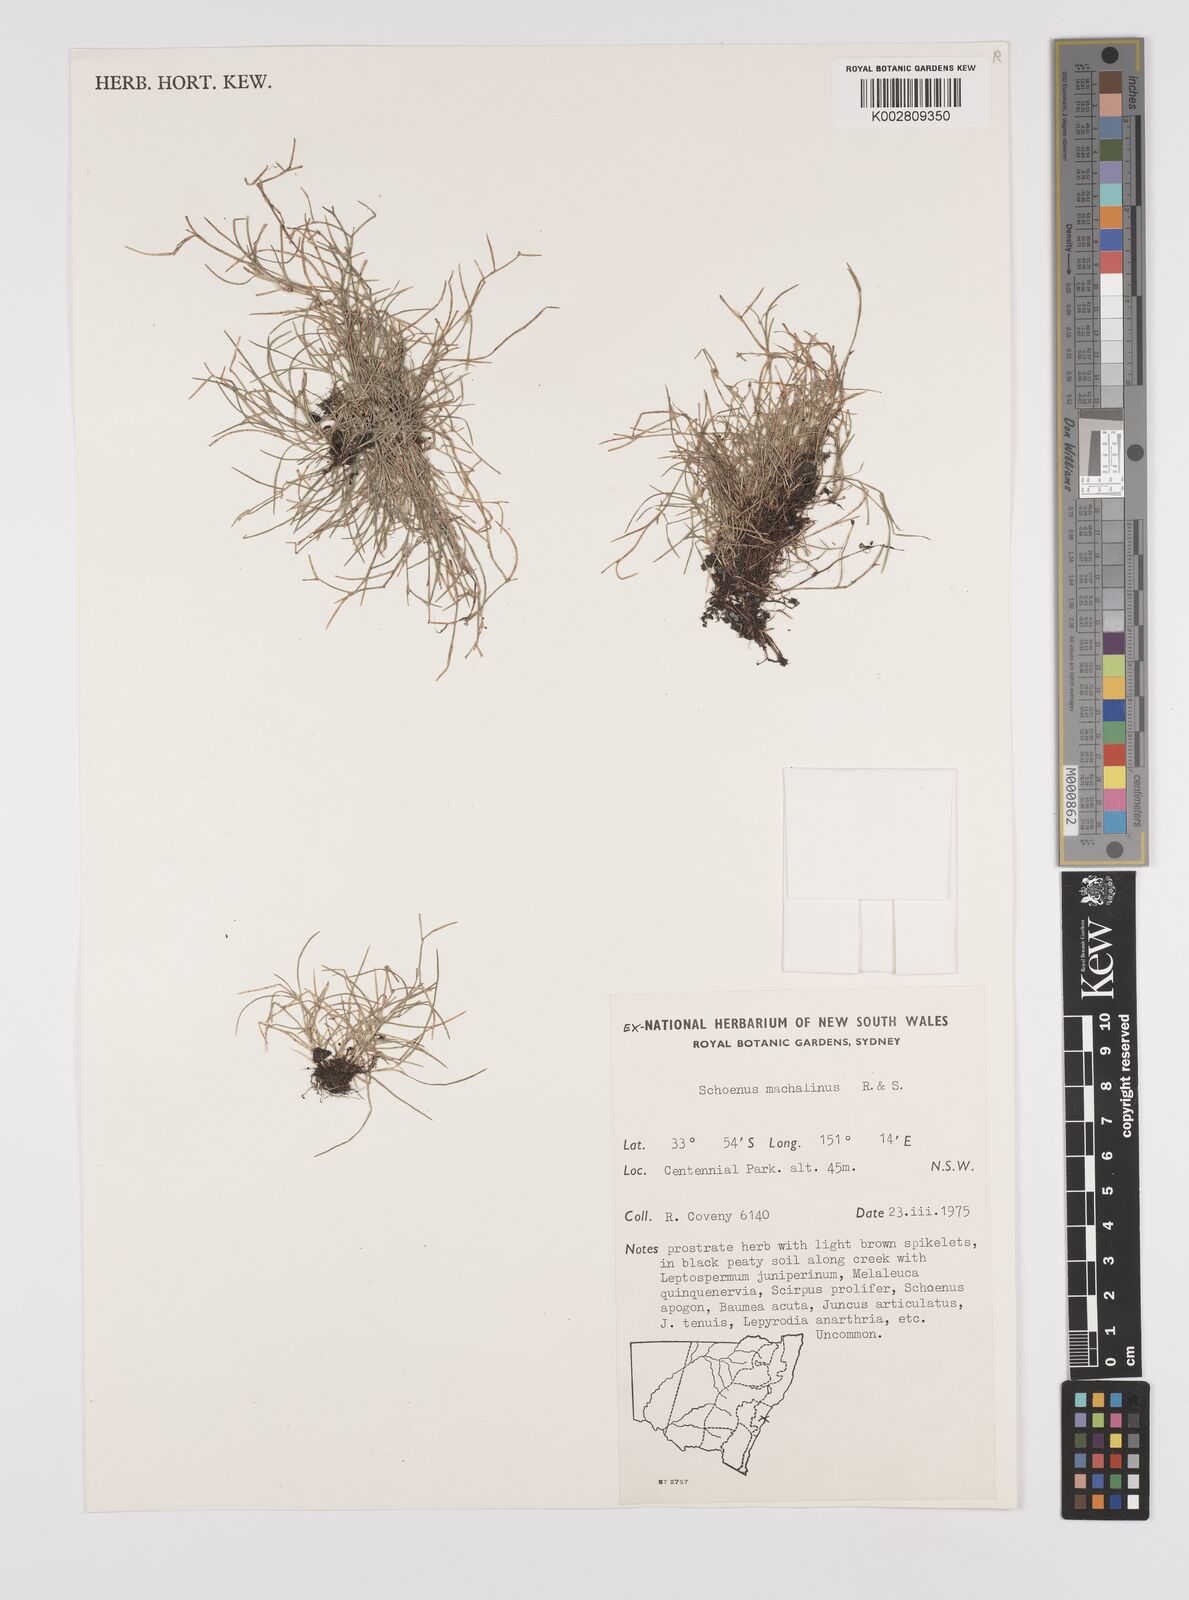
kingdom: Plantae
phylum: Tracheophyta
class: Liliopsida
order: Poales
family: Cyperaceae
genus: Schoenus
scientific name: Schoenus maschalinus
